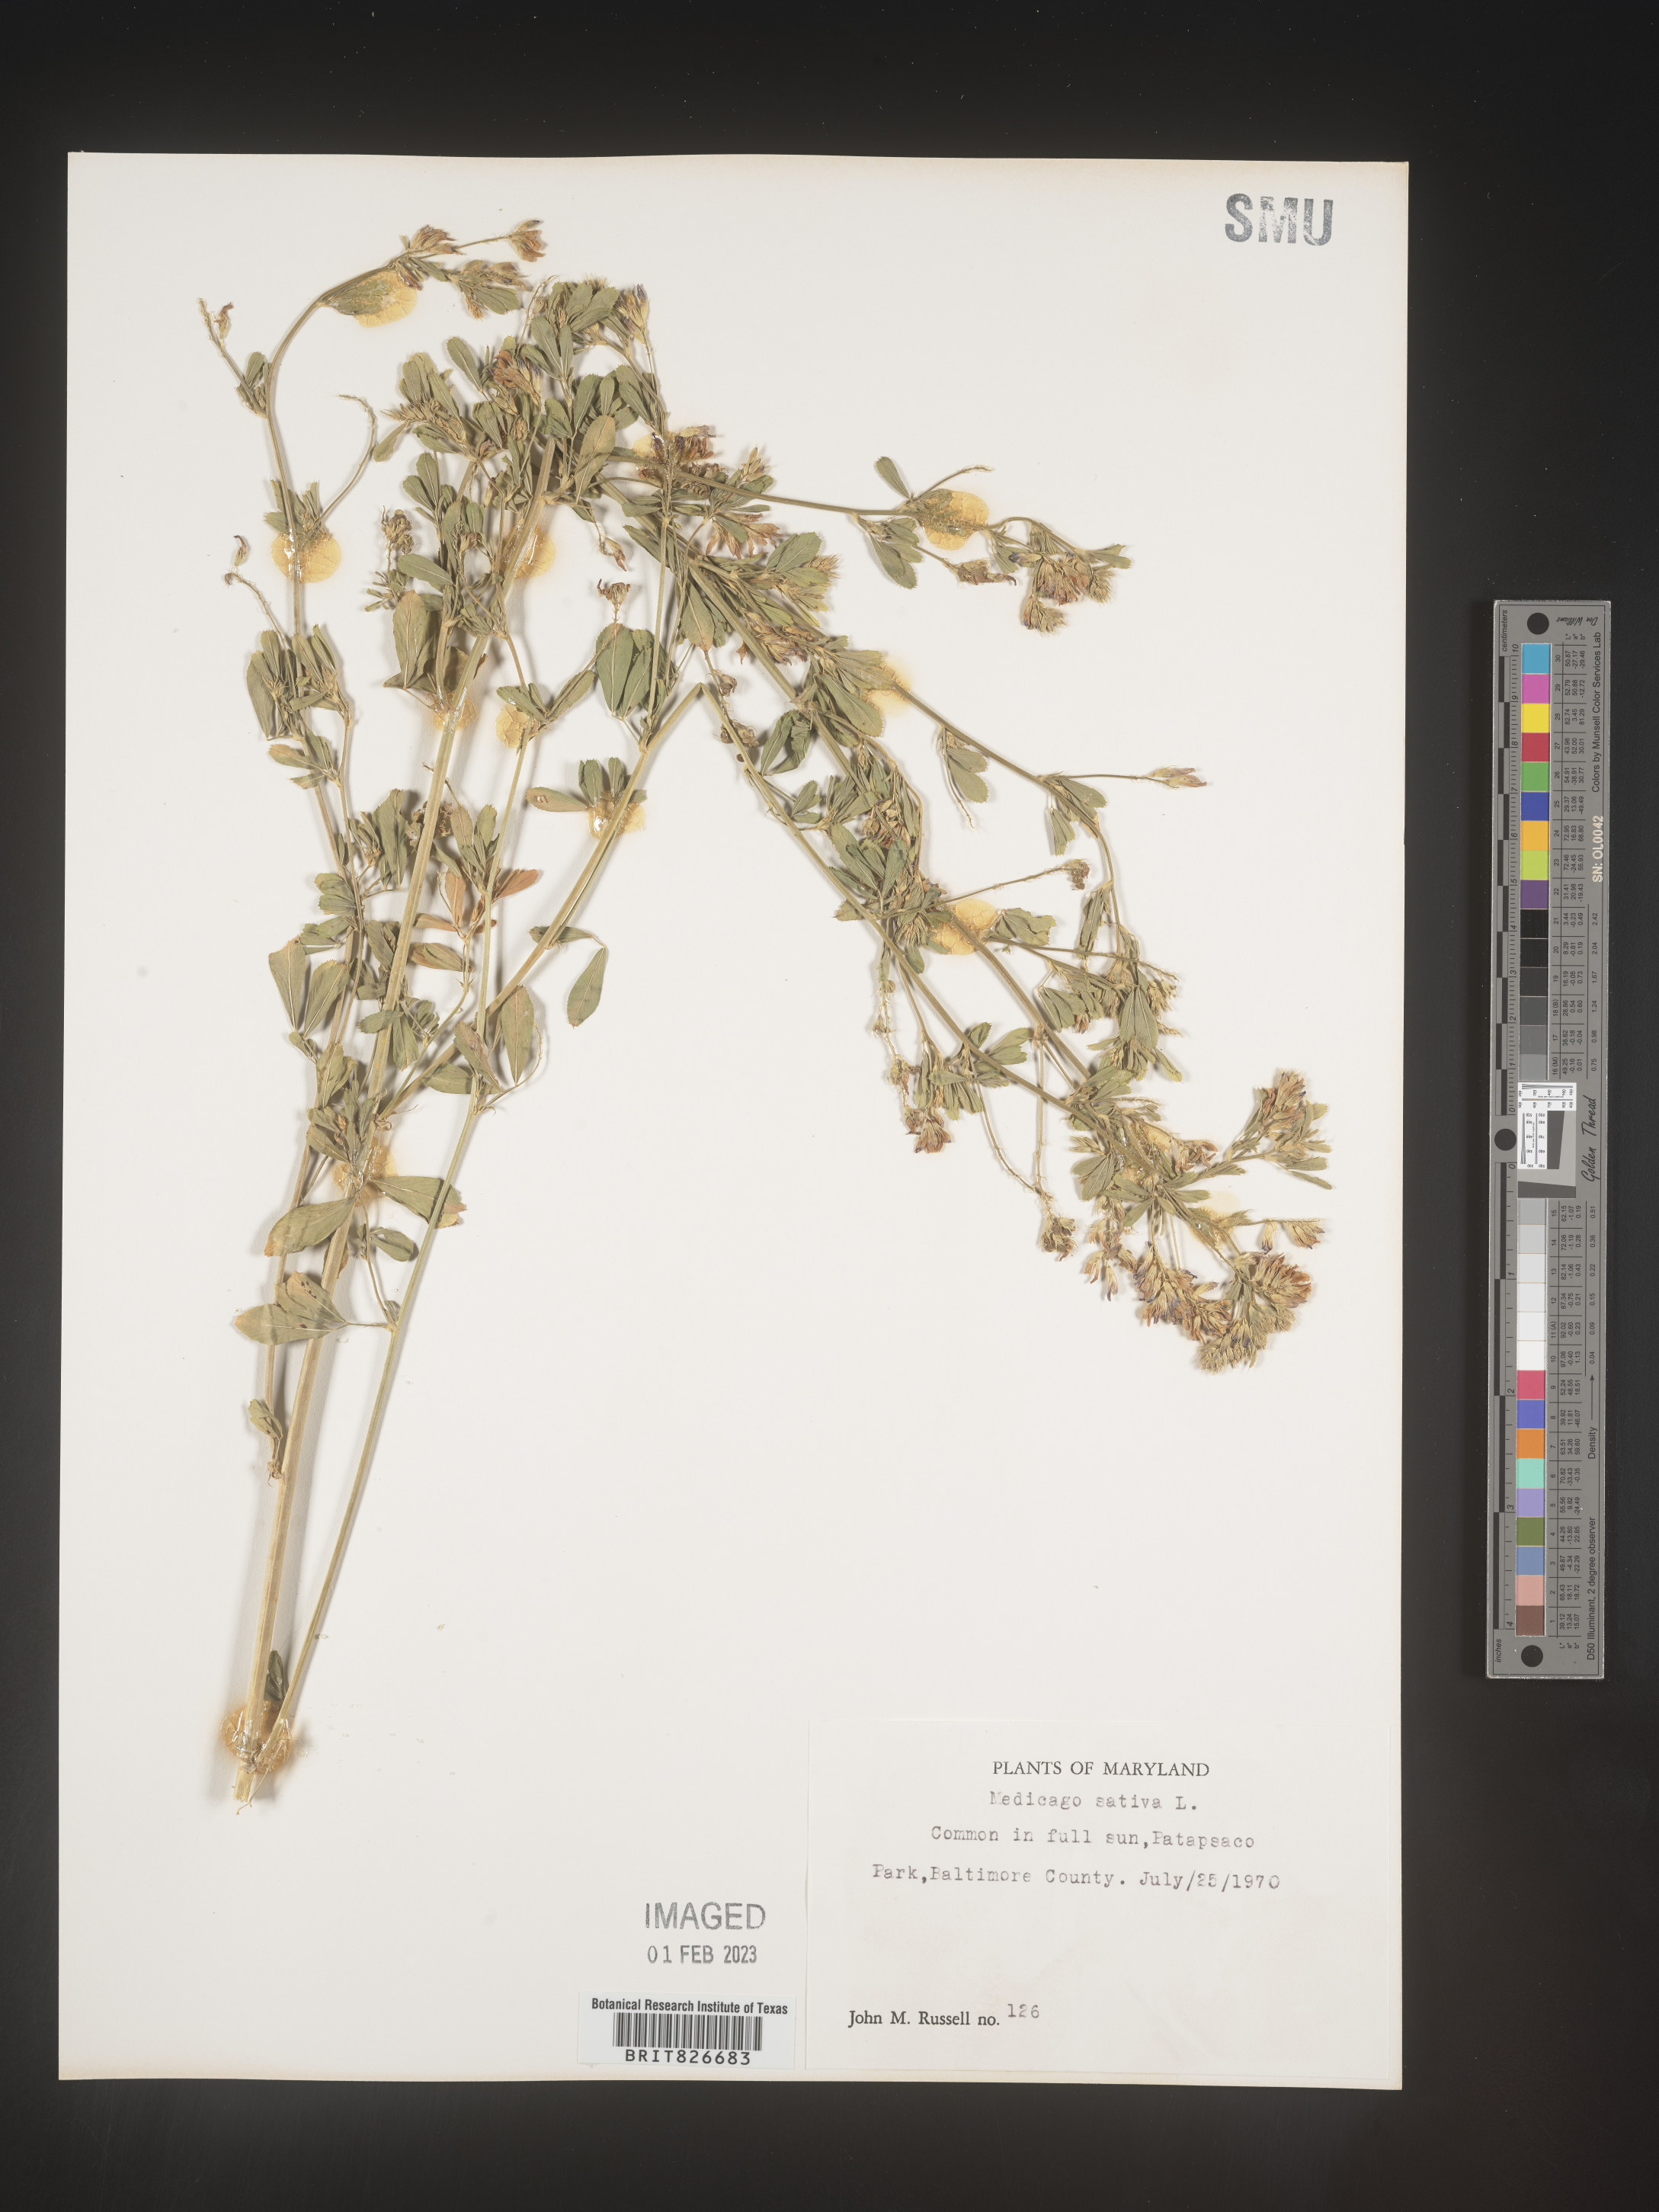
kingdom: Plantae
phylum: Tracheophyta
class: Magnoliopsida
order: Fabales
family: Fabaceae
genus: Medicago
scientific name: Medicago sativa
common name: Alfalfa
